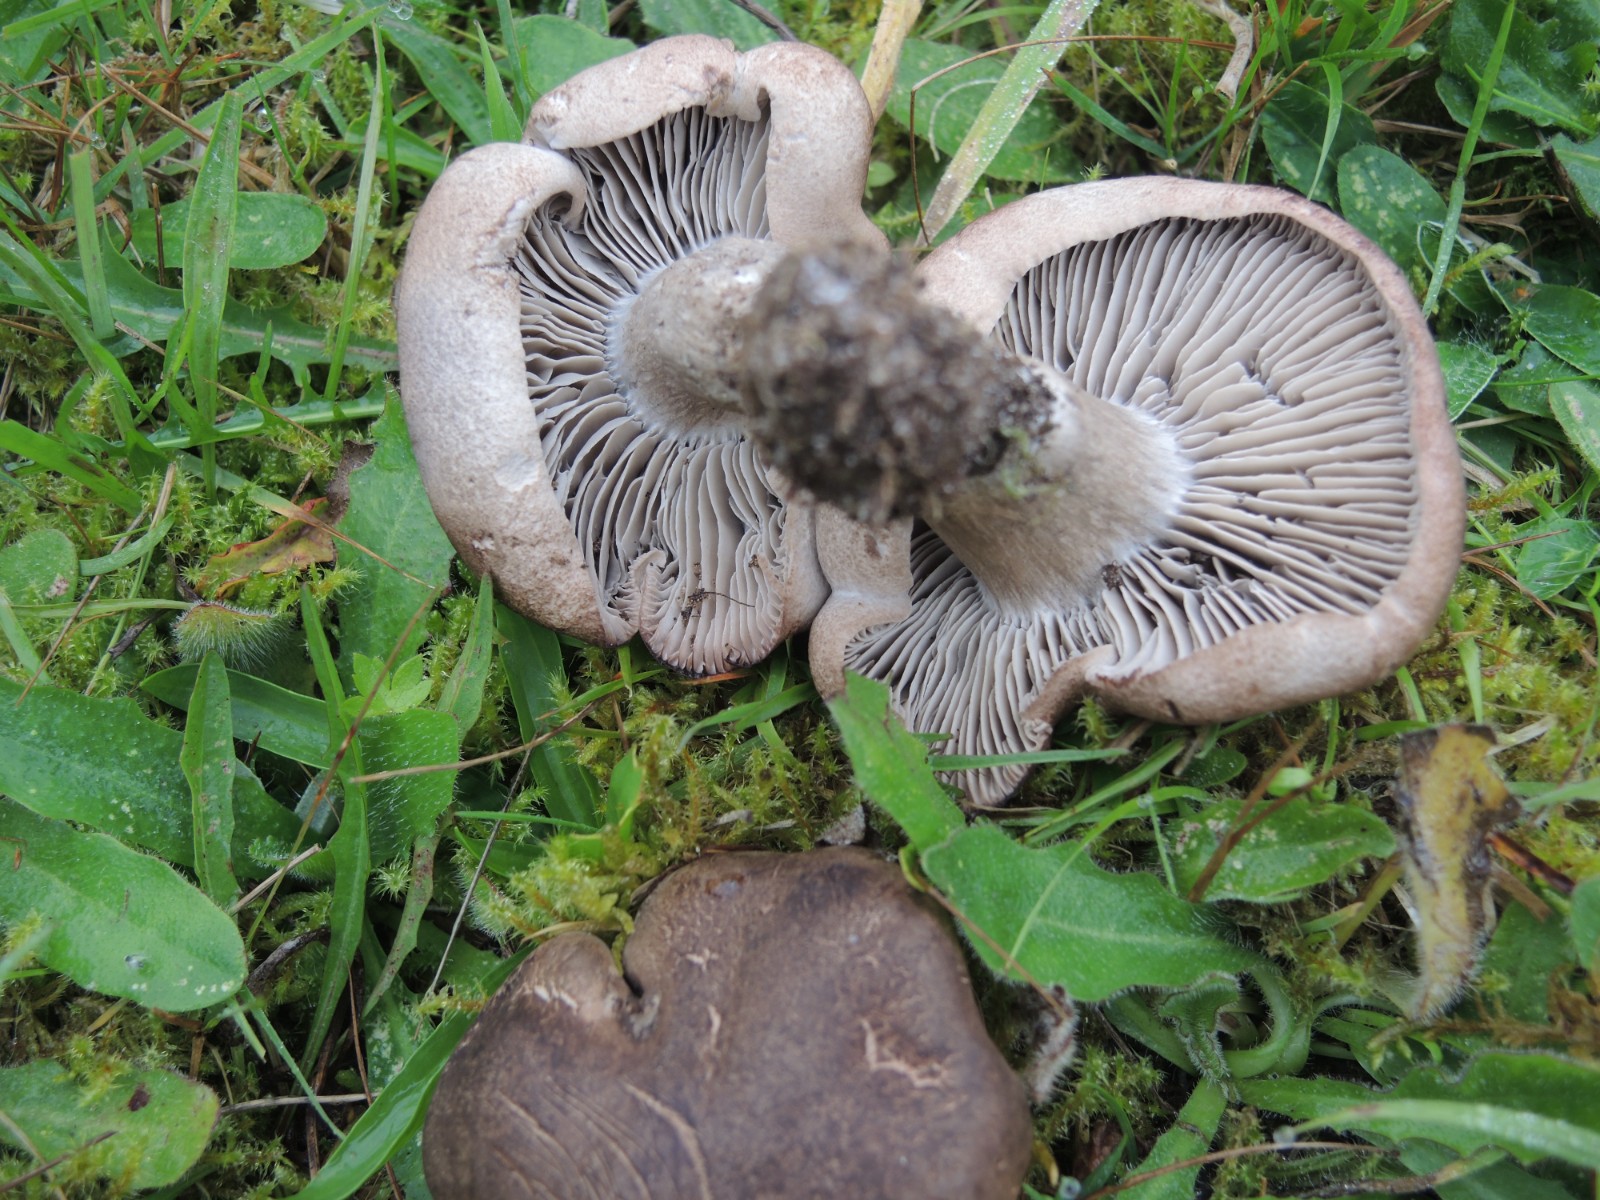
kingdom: Fungi
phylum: Basidiomycota
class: Agaricomycetes
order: Agaricales
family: Tricholomataceae
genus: Pseudotricholoma
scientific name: Pseudotricholoma metapodium
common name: rødmende alfehat
